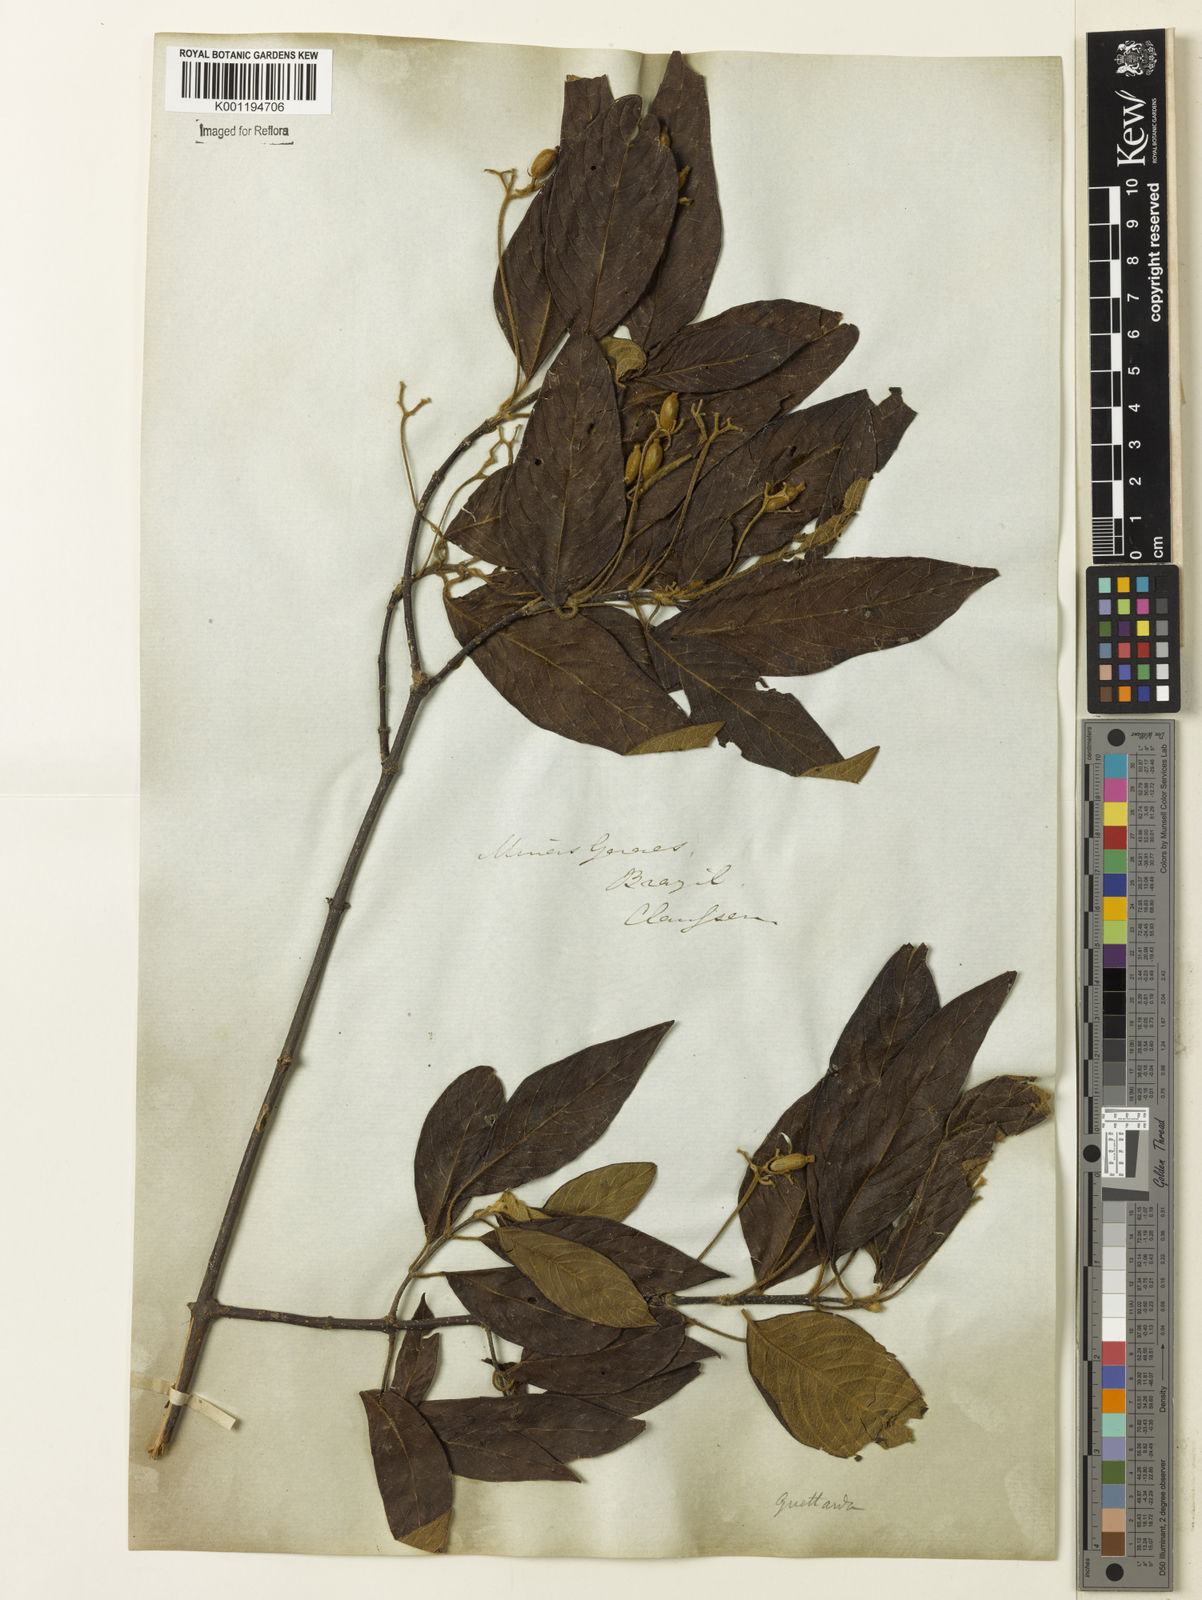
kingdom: Plantae
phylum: Tracheophyta
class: Magnoliopsida
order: Gentianales
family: Rubiaceae
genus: Guettarda
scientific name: Guettarda uruguensis
